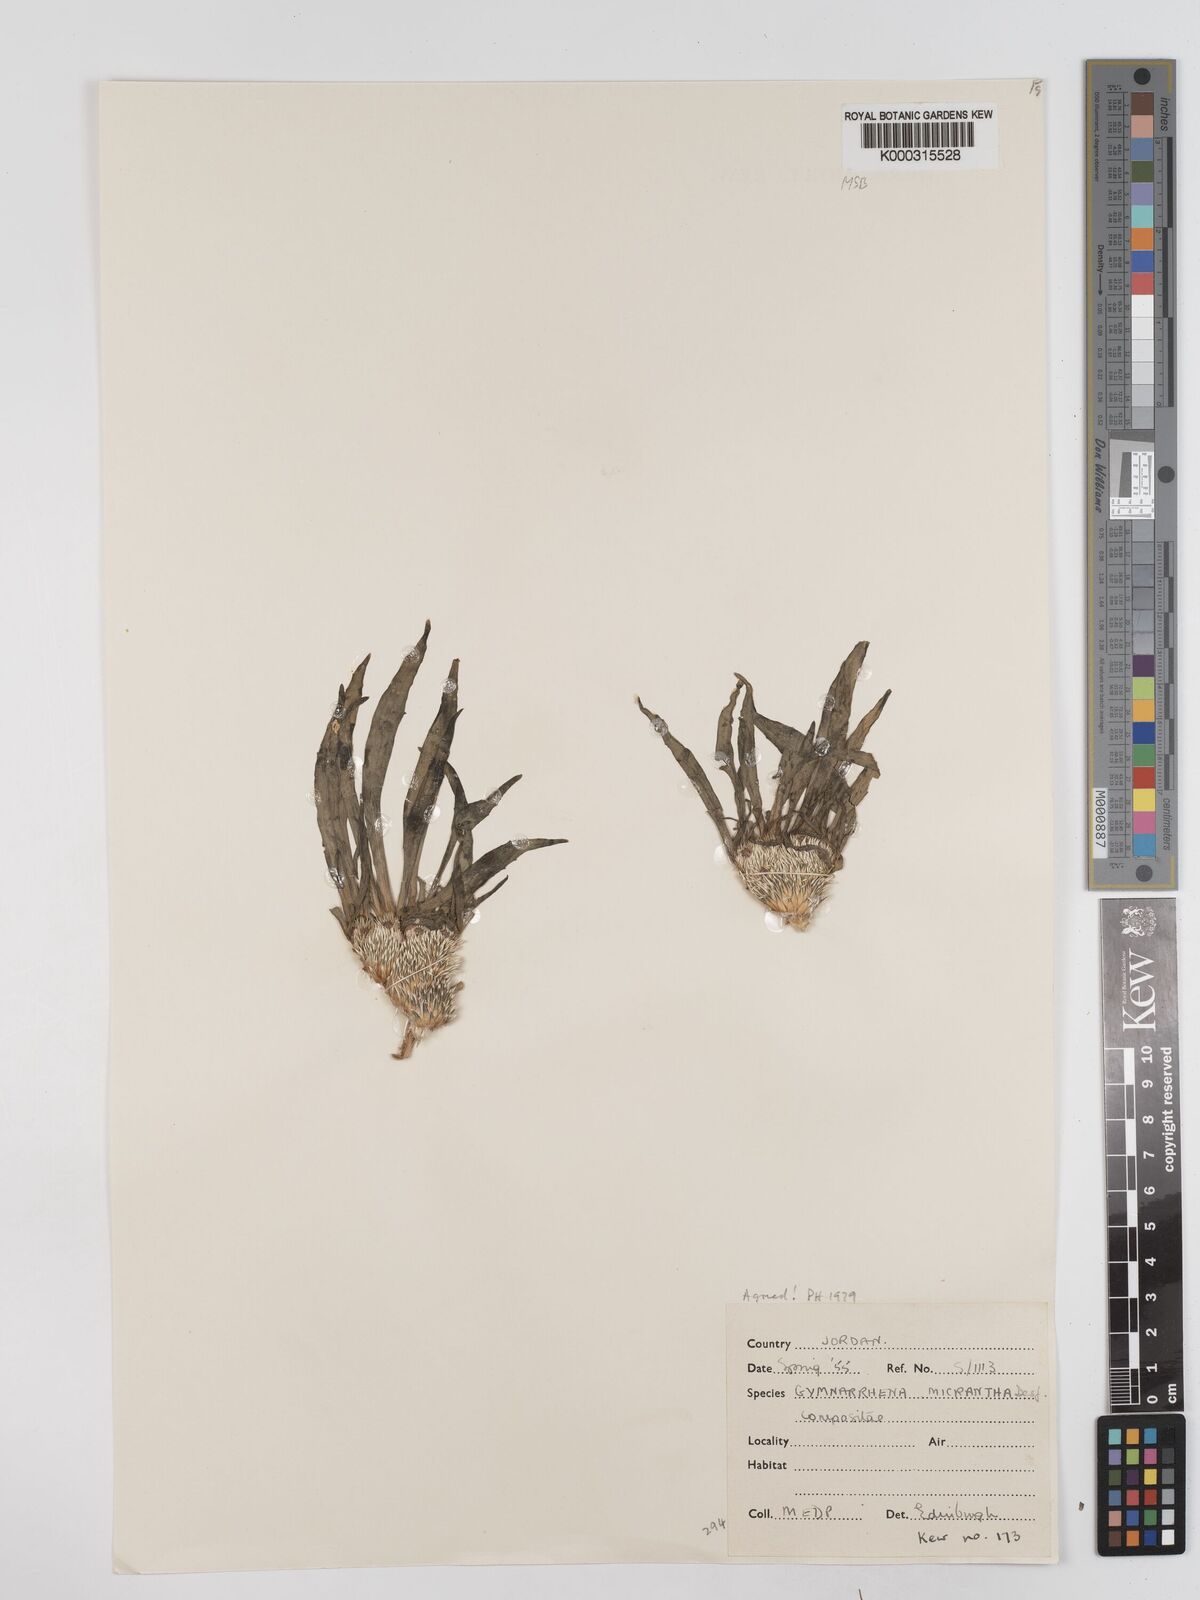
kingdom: Plantae
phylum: Tracheophyta
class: Magnoliopsida
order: Asterales
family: Asteraceae
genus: Gymnarrhena
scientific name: Gymnarrhena micrantha
